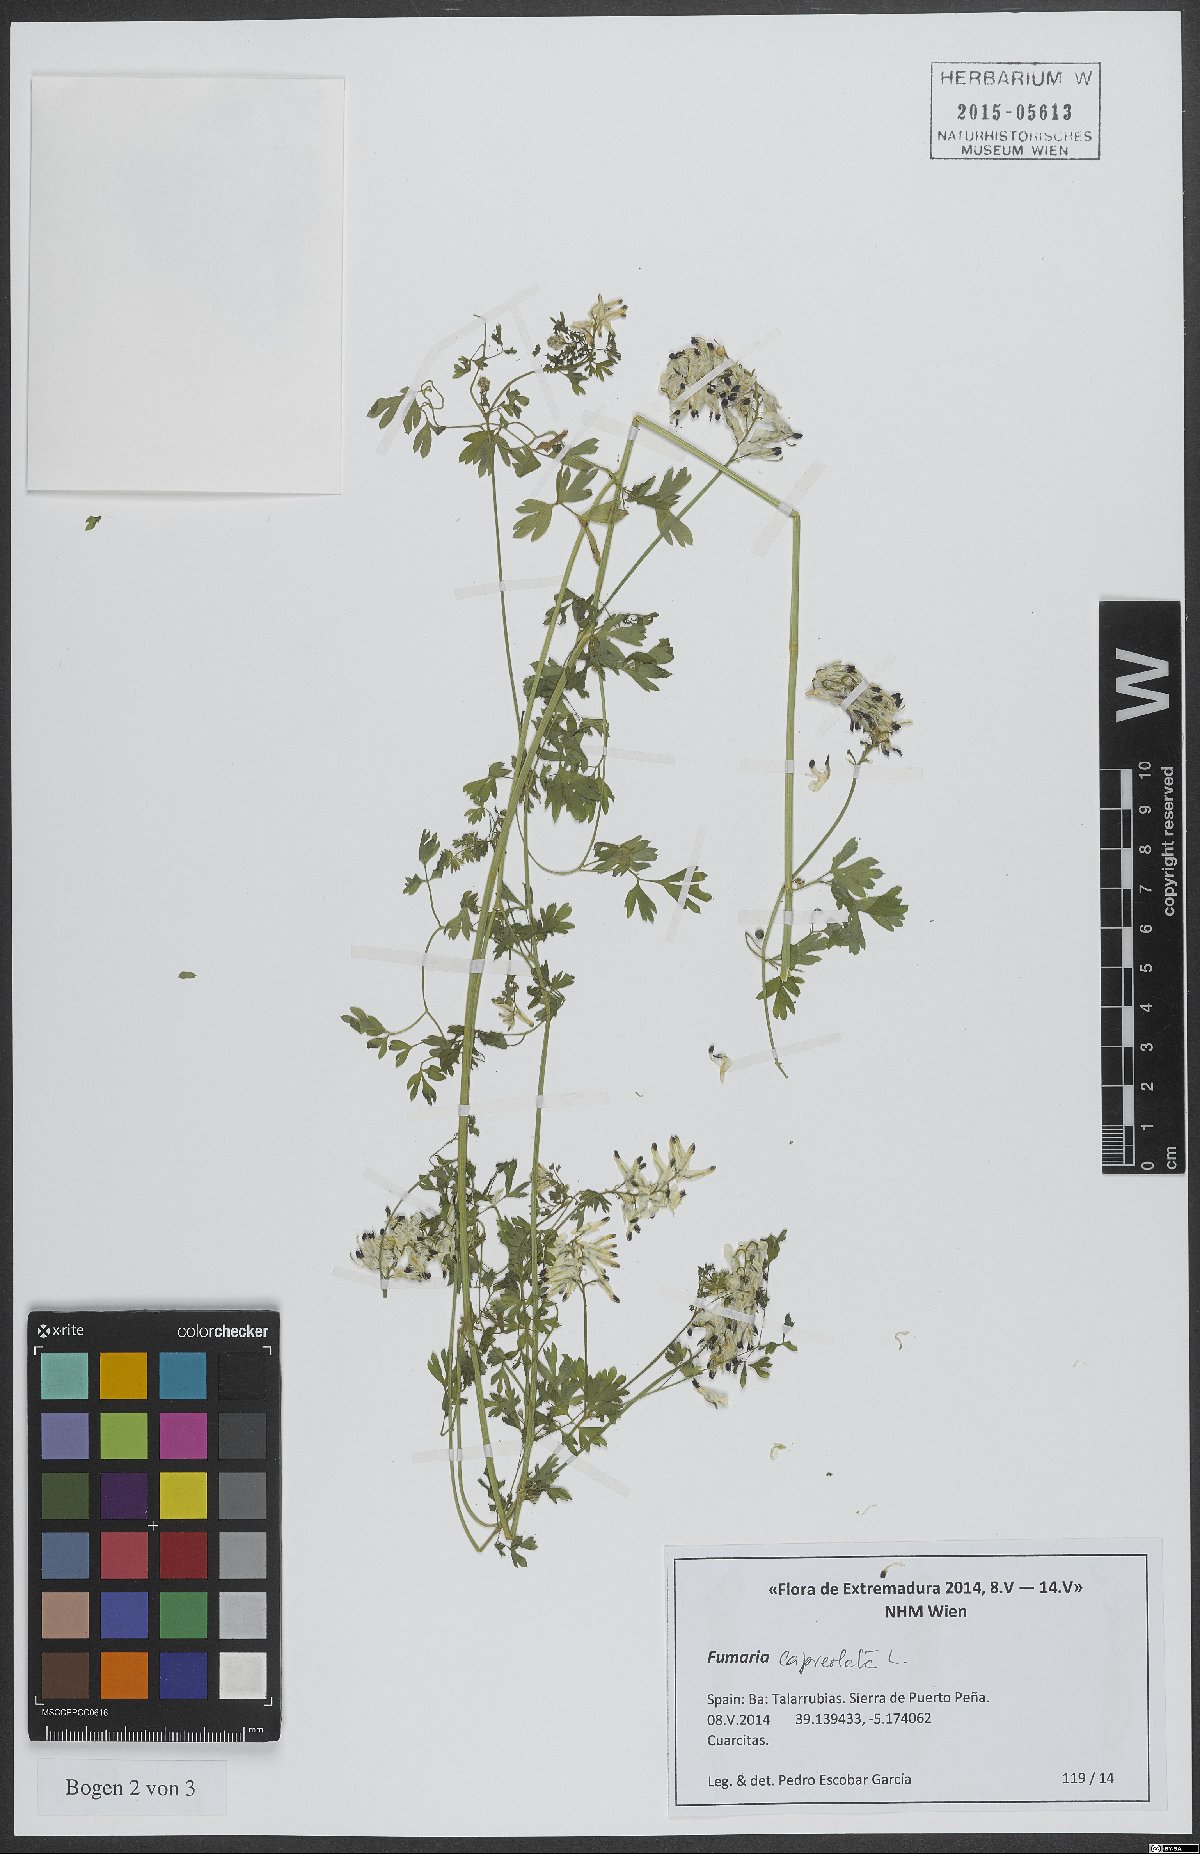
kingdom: Plantae
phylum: Tracheophyta
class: Magnoliopsida
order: Ranunculales
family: Papaveraceae
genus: Fumaria
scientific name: Fumaria capreolata
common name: White ramping-fumitory
